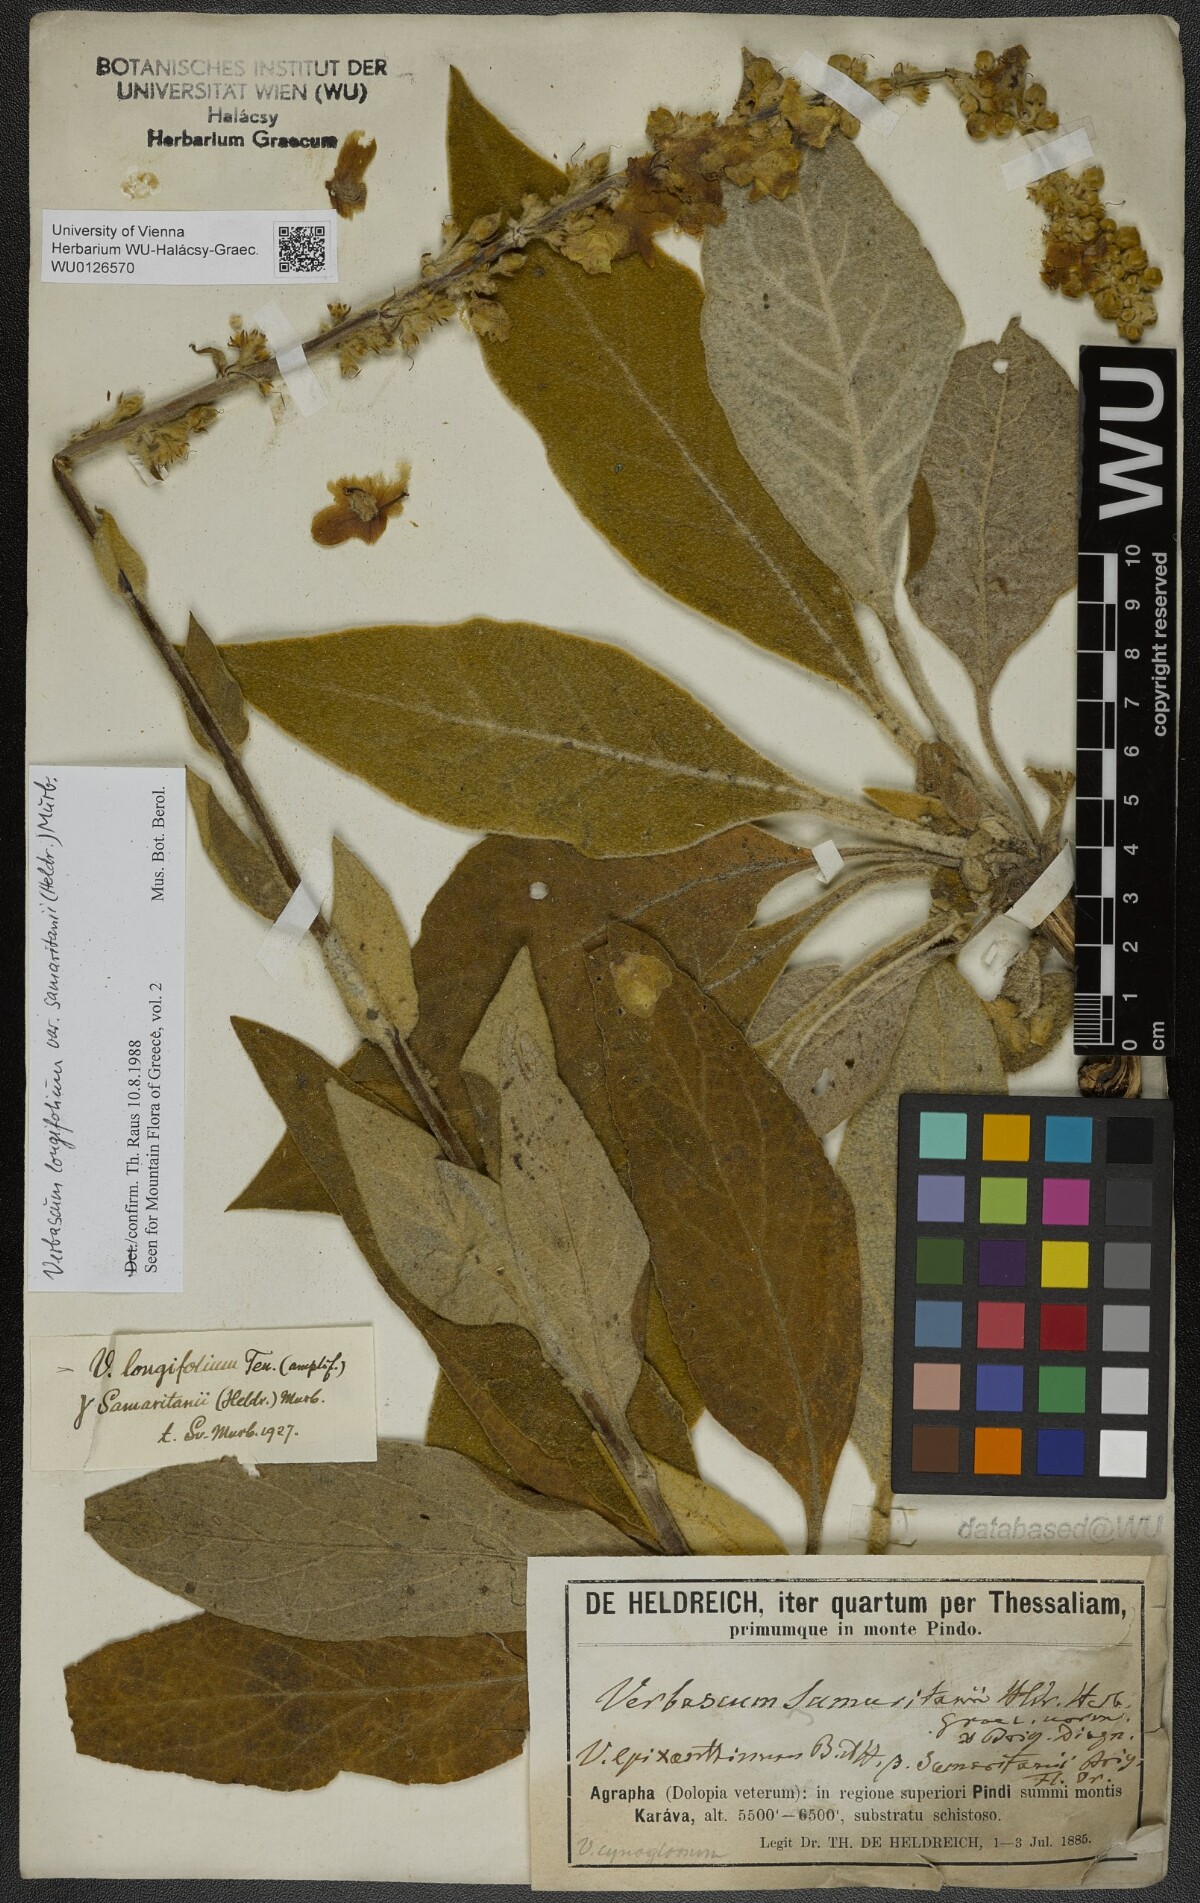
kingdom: Plantae
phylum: Tracheophyta
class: Magnoliopsida
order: Lamiales
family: Scrophulariaceae
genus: Verbascum
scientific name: Verbascum longifolium
